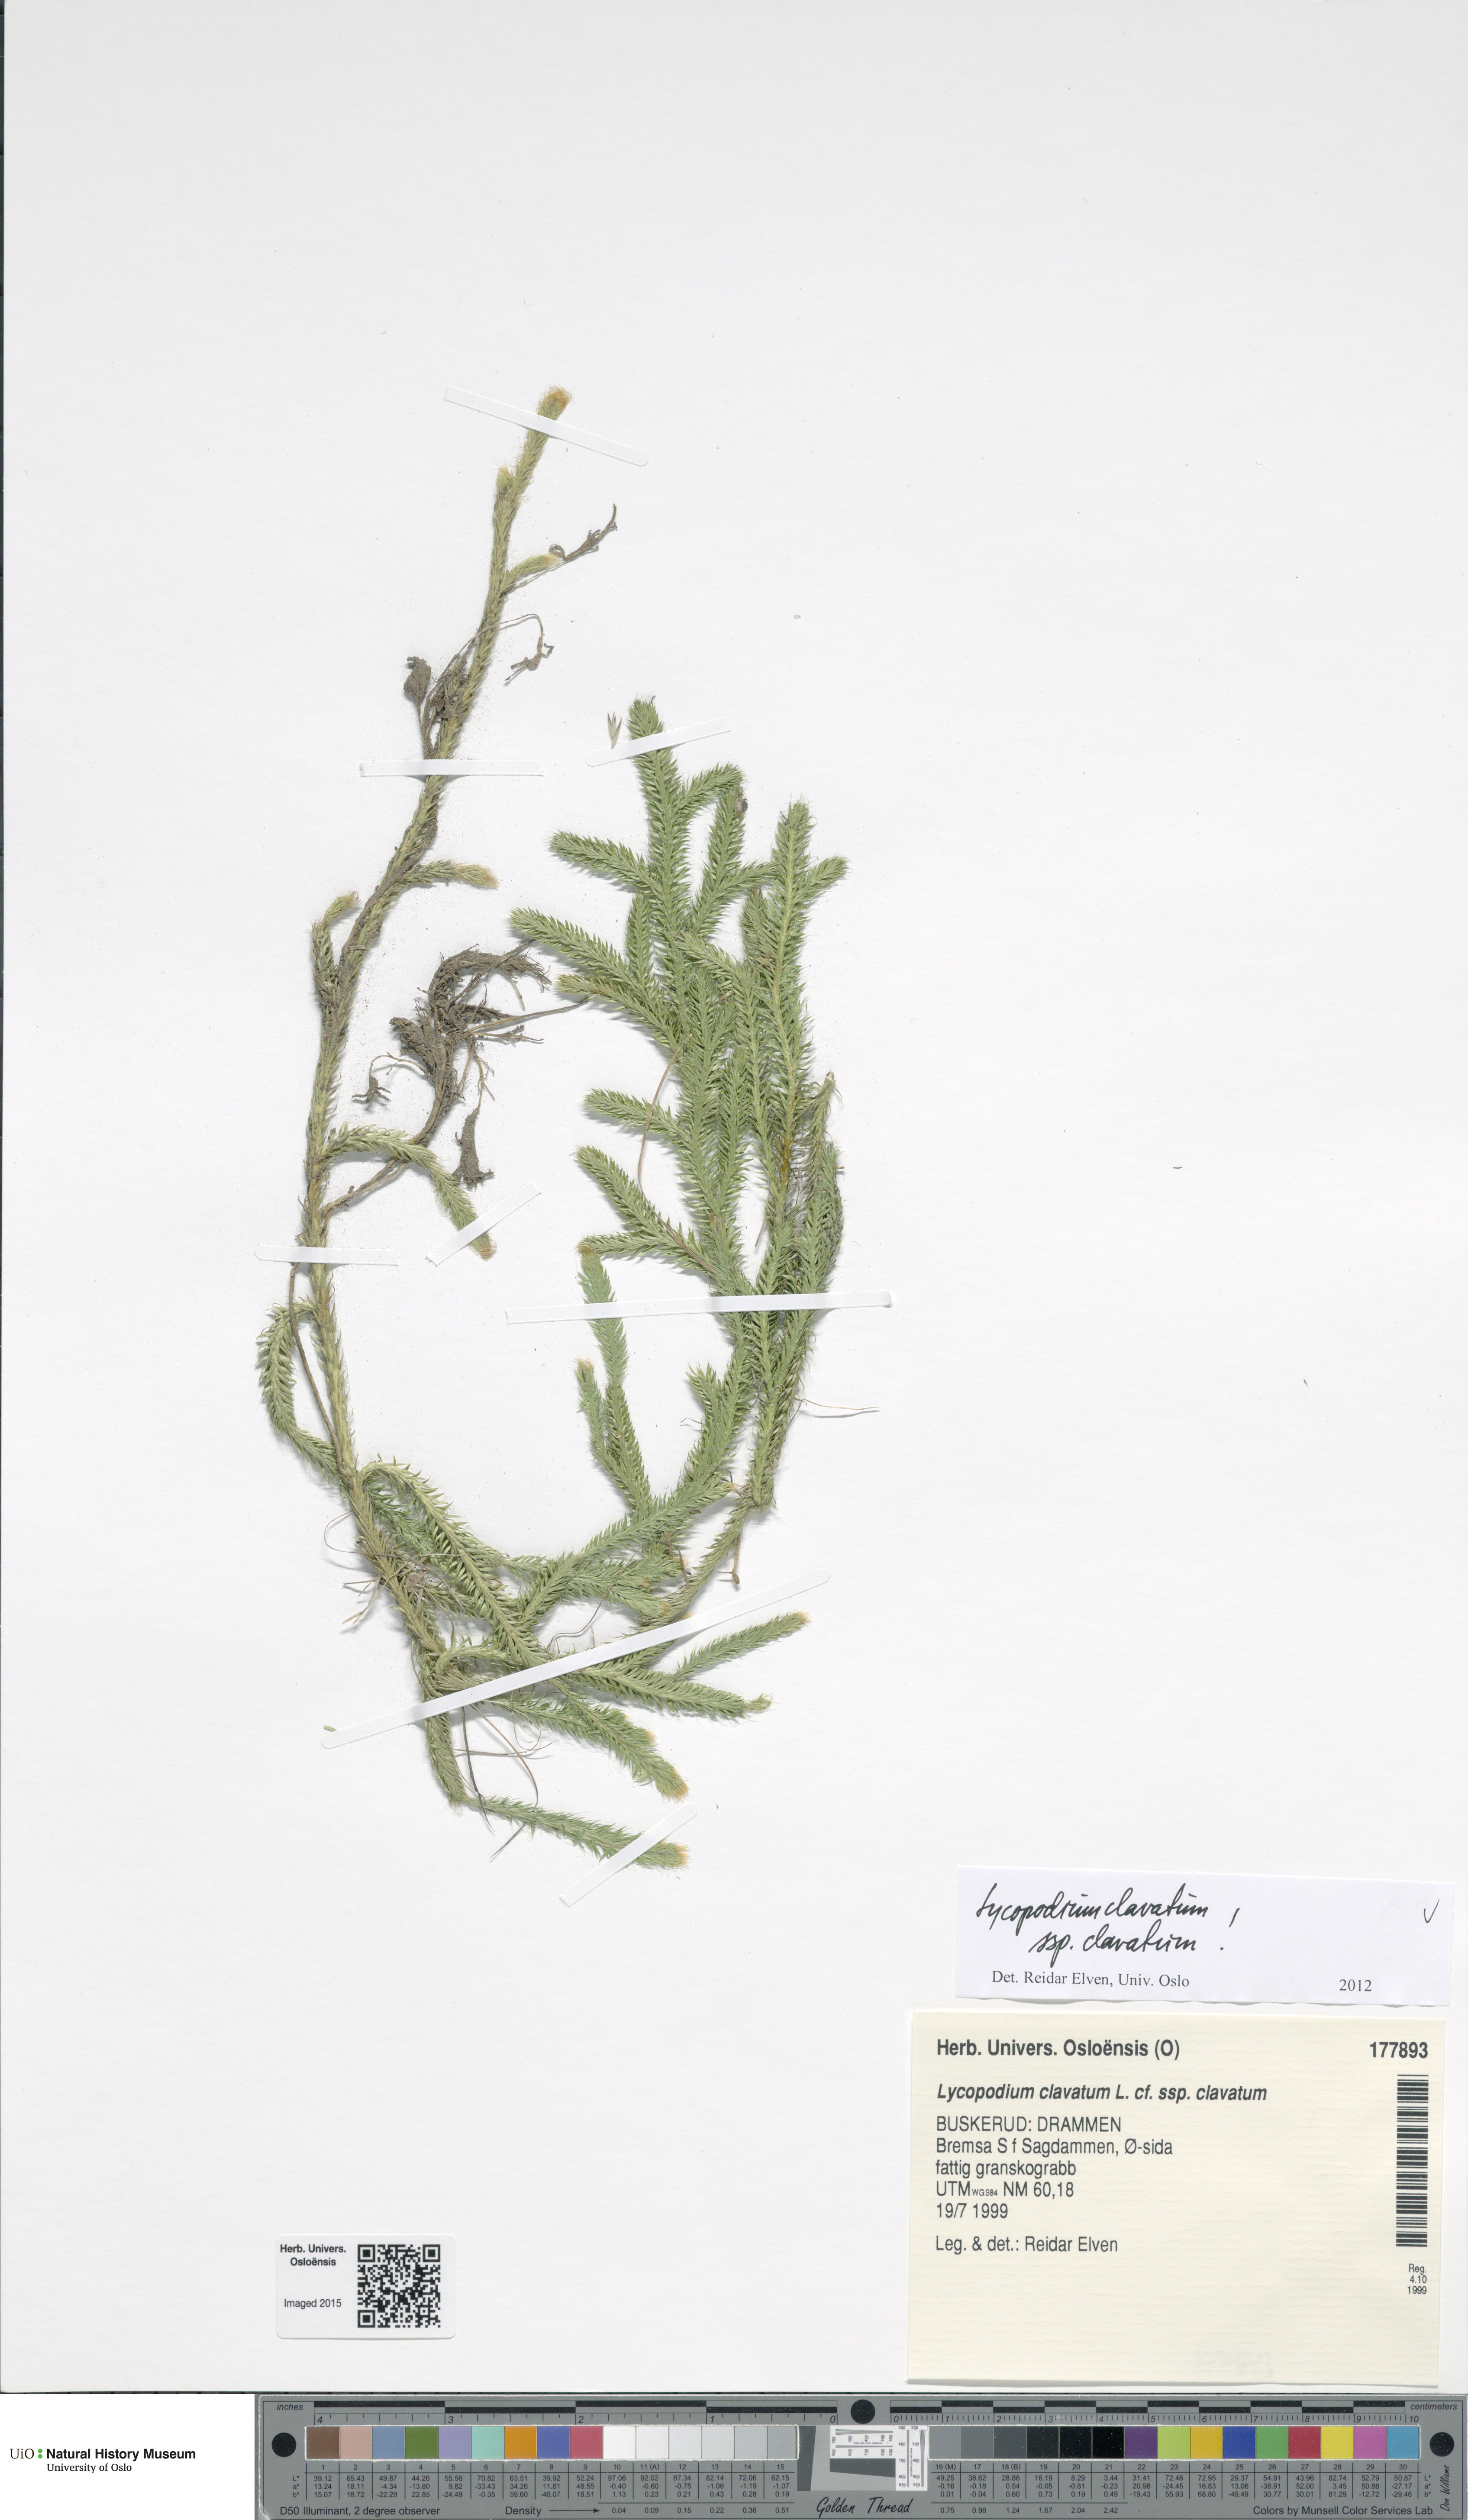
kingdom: Plantae
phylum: Tracheophyta
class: Lycopodiopsida
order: Lycopodiales
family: Lycopodiaceae
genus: Lycopodium
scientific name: Lycopodium clavatum
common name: Stag's-horn clubmoss
